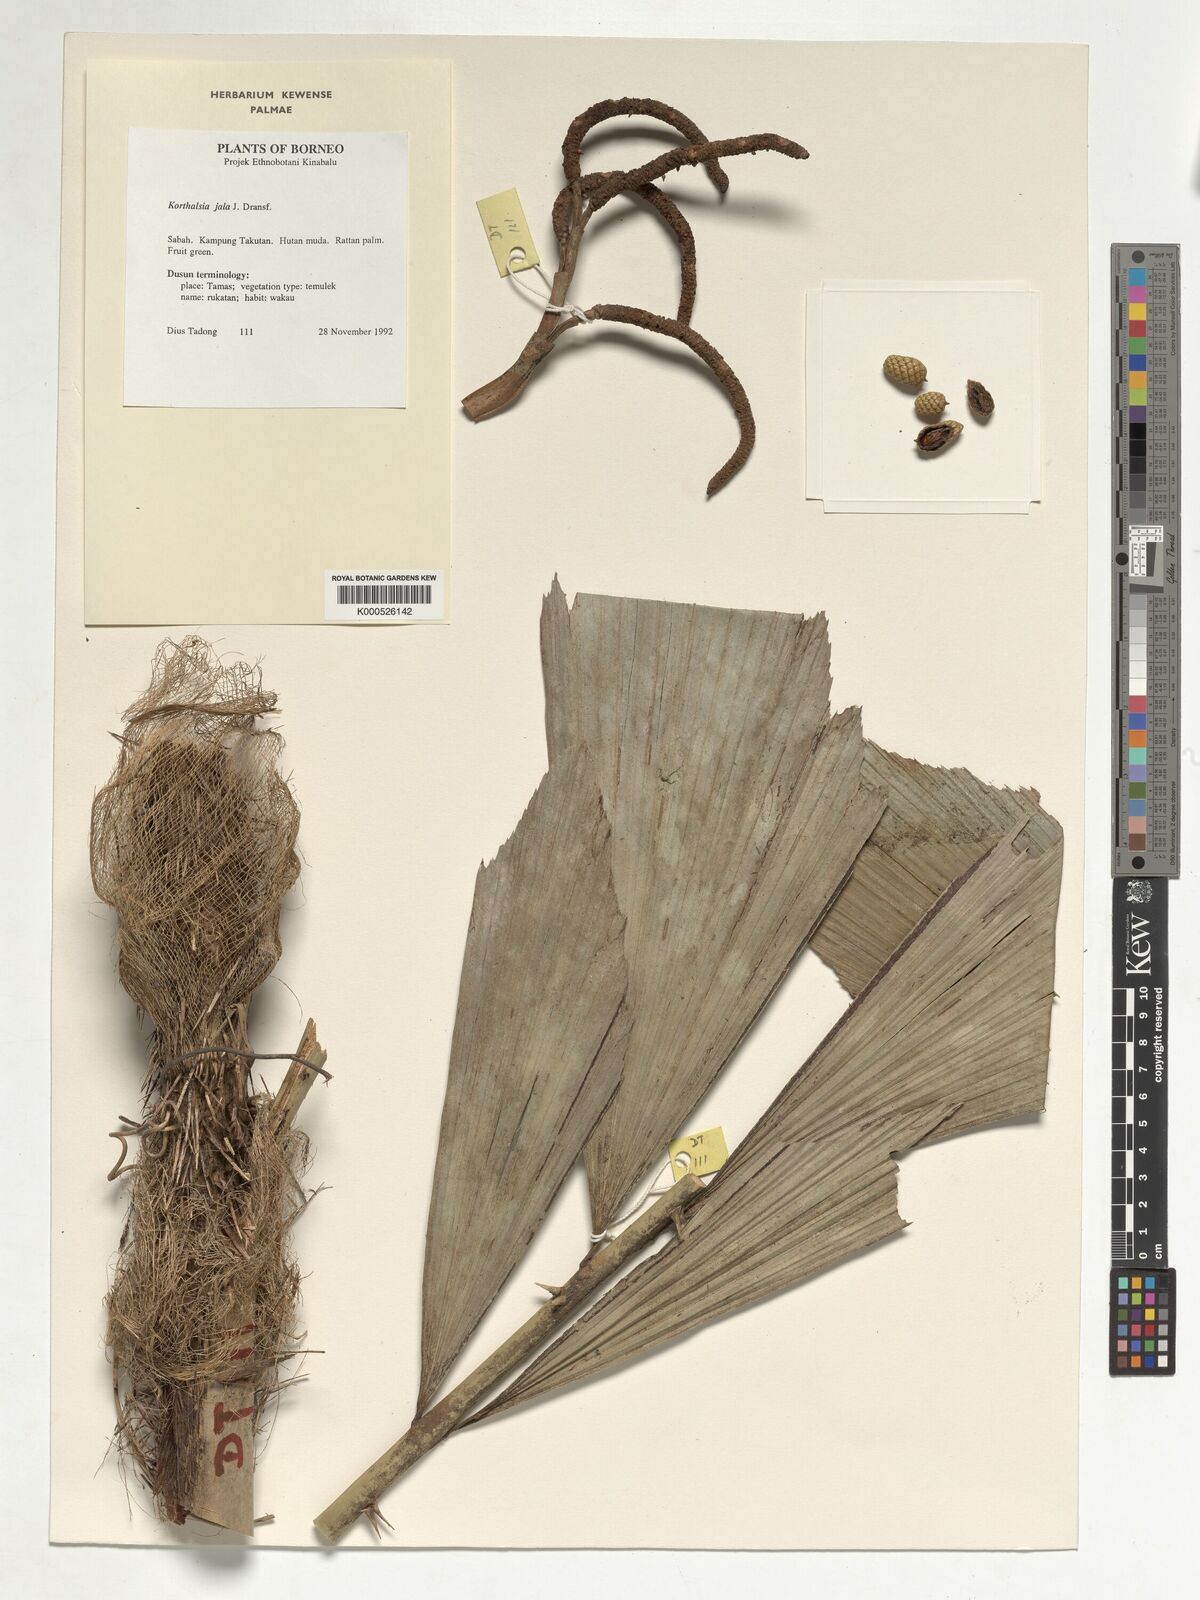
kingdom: Plantae
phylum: Tracheophyta
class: Liliopsida
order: Arecales
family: Arecaceae
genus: Korthalsia
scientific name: Korthalsia jala
